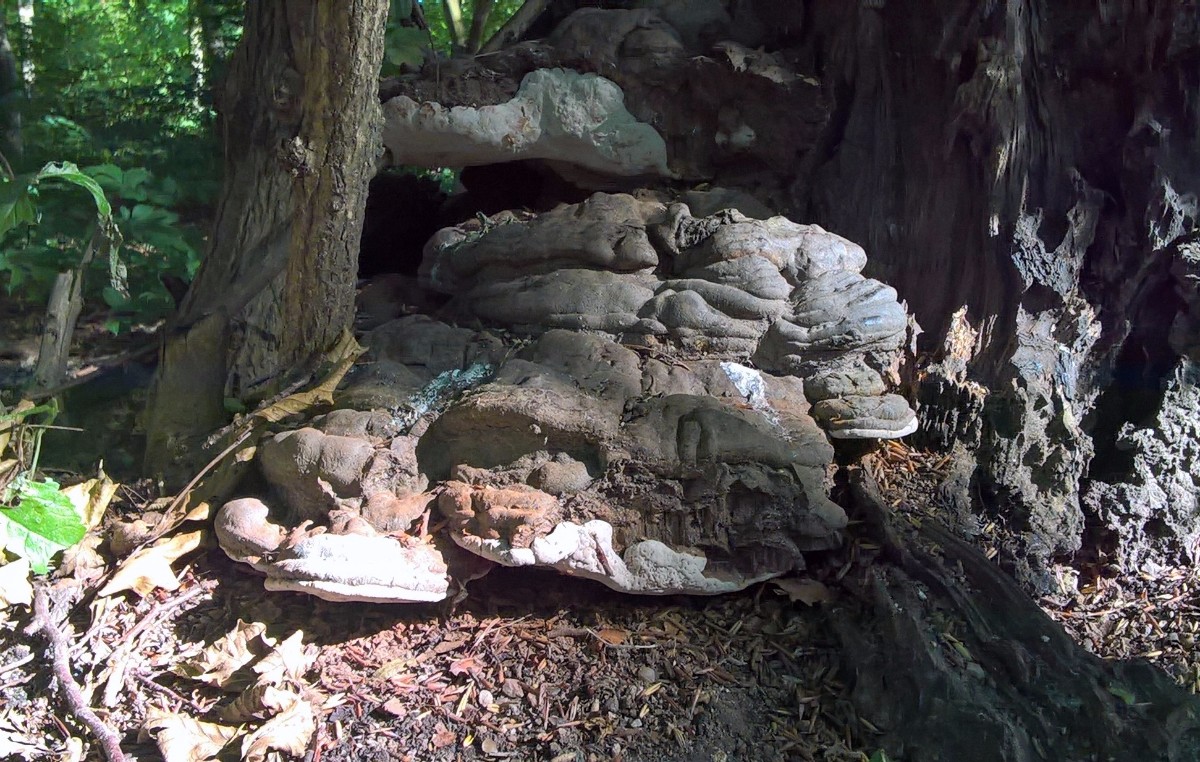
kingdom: Fungi
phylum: Basidiomycota
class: Agaricomycetes
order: Polyporales
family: Polyporaceae
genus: Ganoderma
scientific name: Ganoderma pfeifferi
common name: kobberrød lakporesvamp
